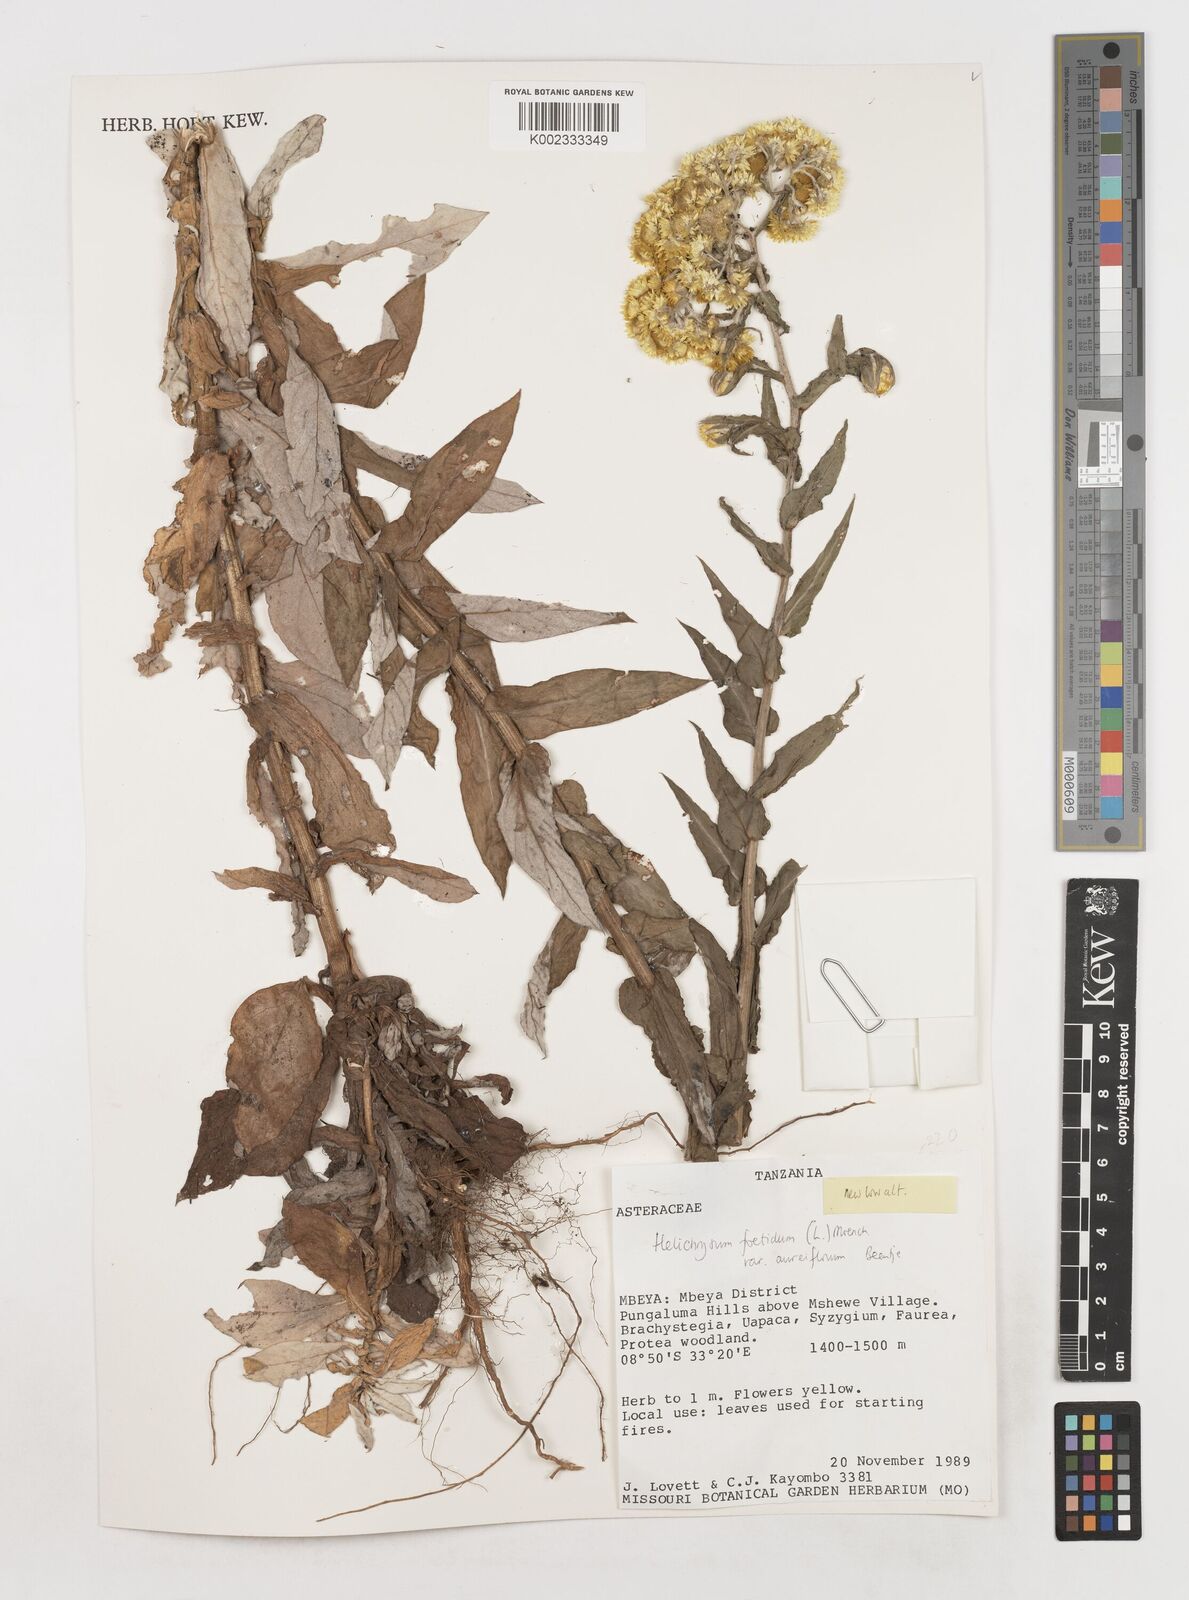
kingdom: Plantae
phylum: Tracheophyta
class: Magnoliopsida
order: Asterales
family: Asteraceae
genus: Helichrysum
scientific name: Helichrysum foetidum
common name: Stinking everlasting
